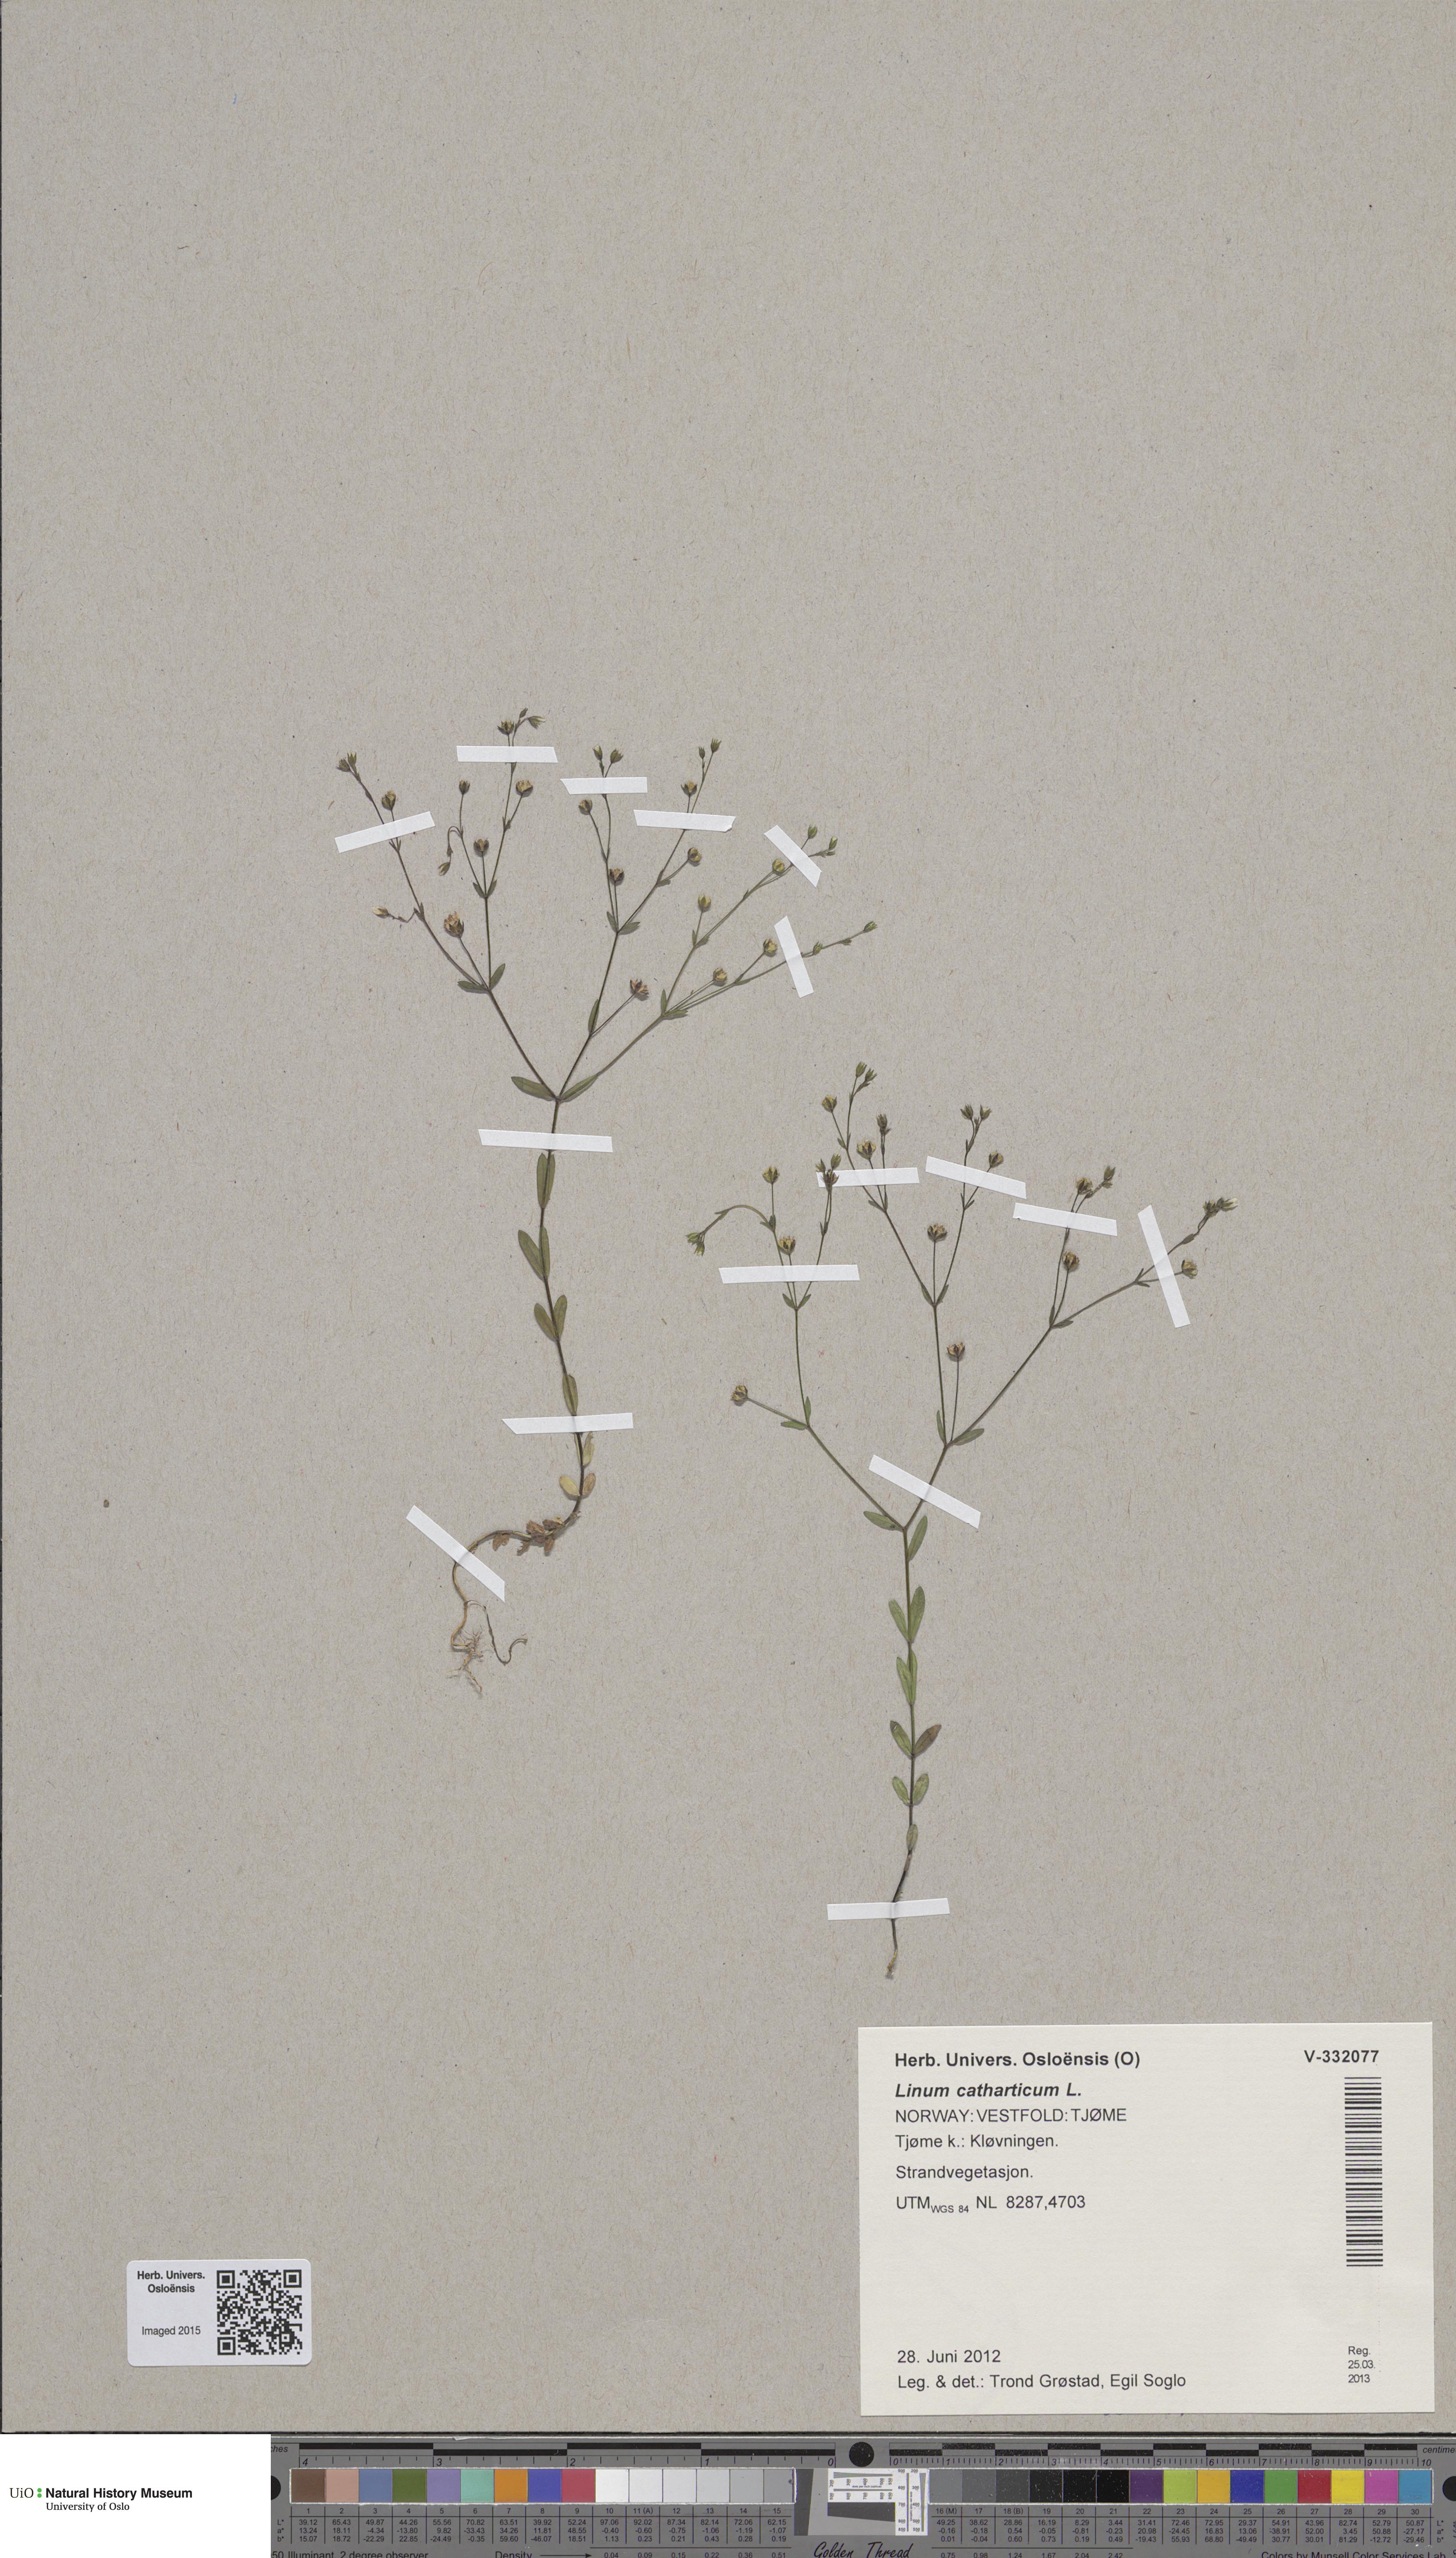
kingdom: Plantae
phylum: Tracheophyta
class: Magnoliopsida
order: Malpighiales
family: Linaceae
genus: Linum
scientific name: Linum catharticum
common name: Fairy flax
